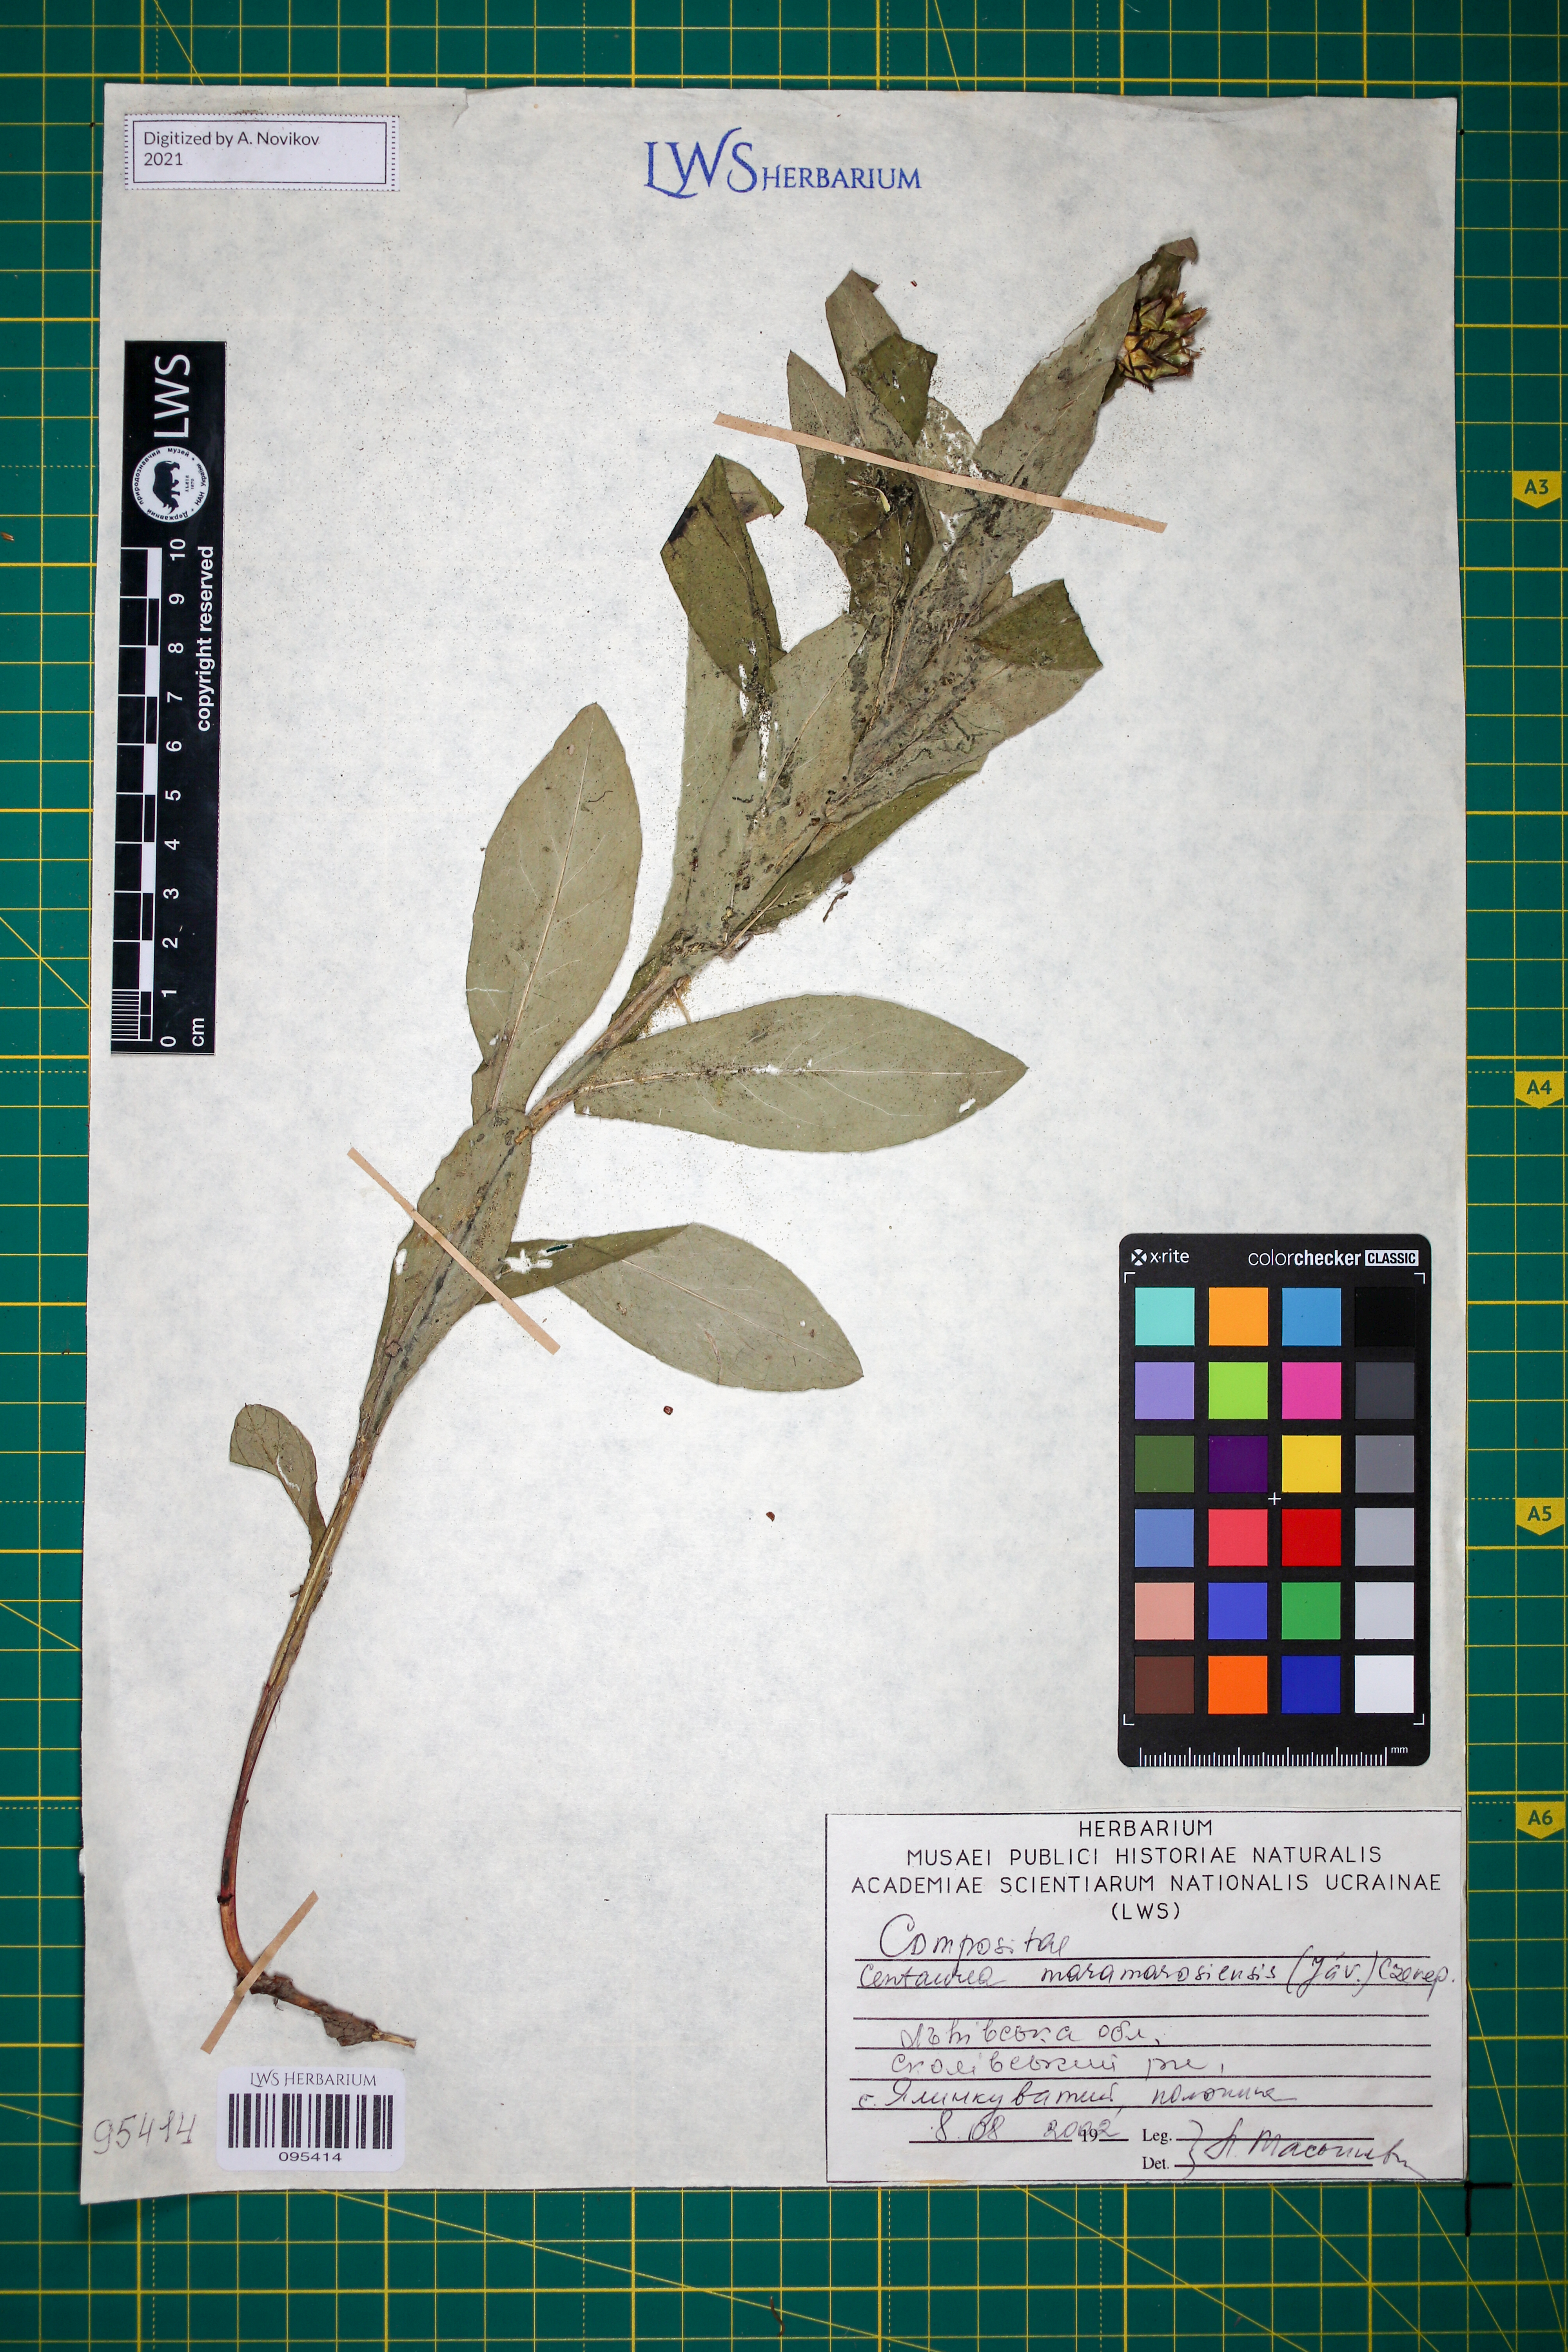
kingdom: Plantae
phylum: Tracheophyta
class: Magnoliopsida
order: Asterales
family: Asteraceae
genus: Centaurea
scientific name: Centaurea maramarosiensis
